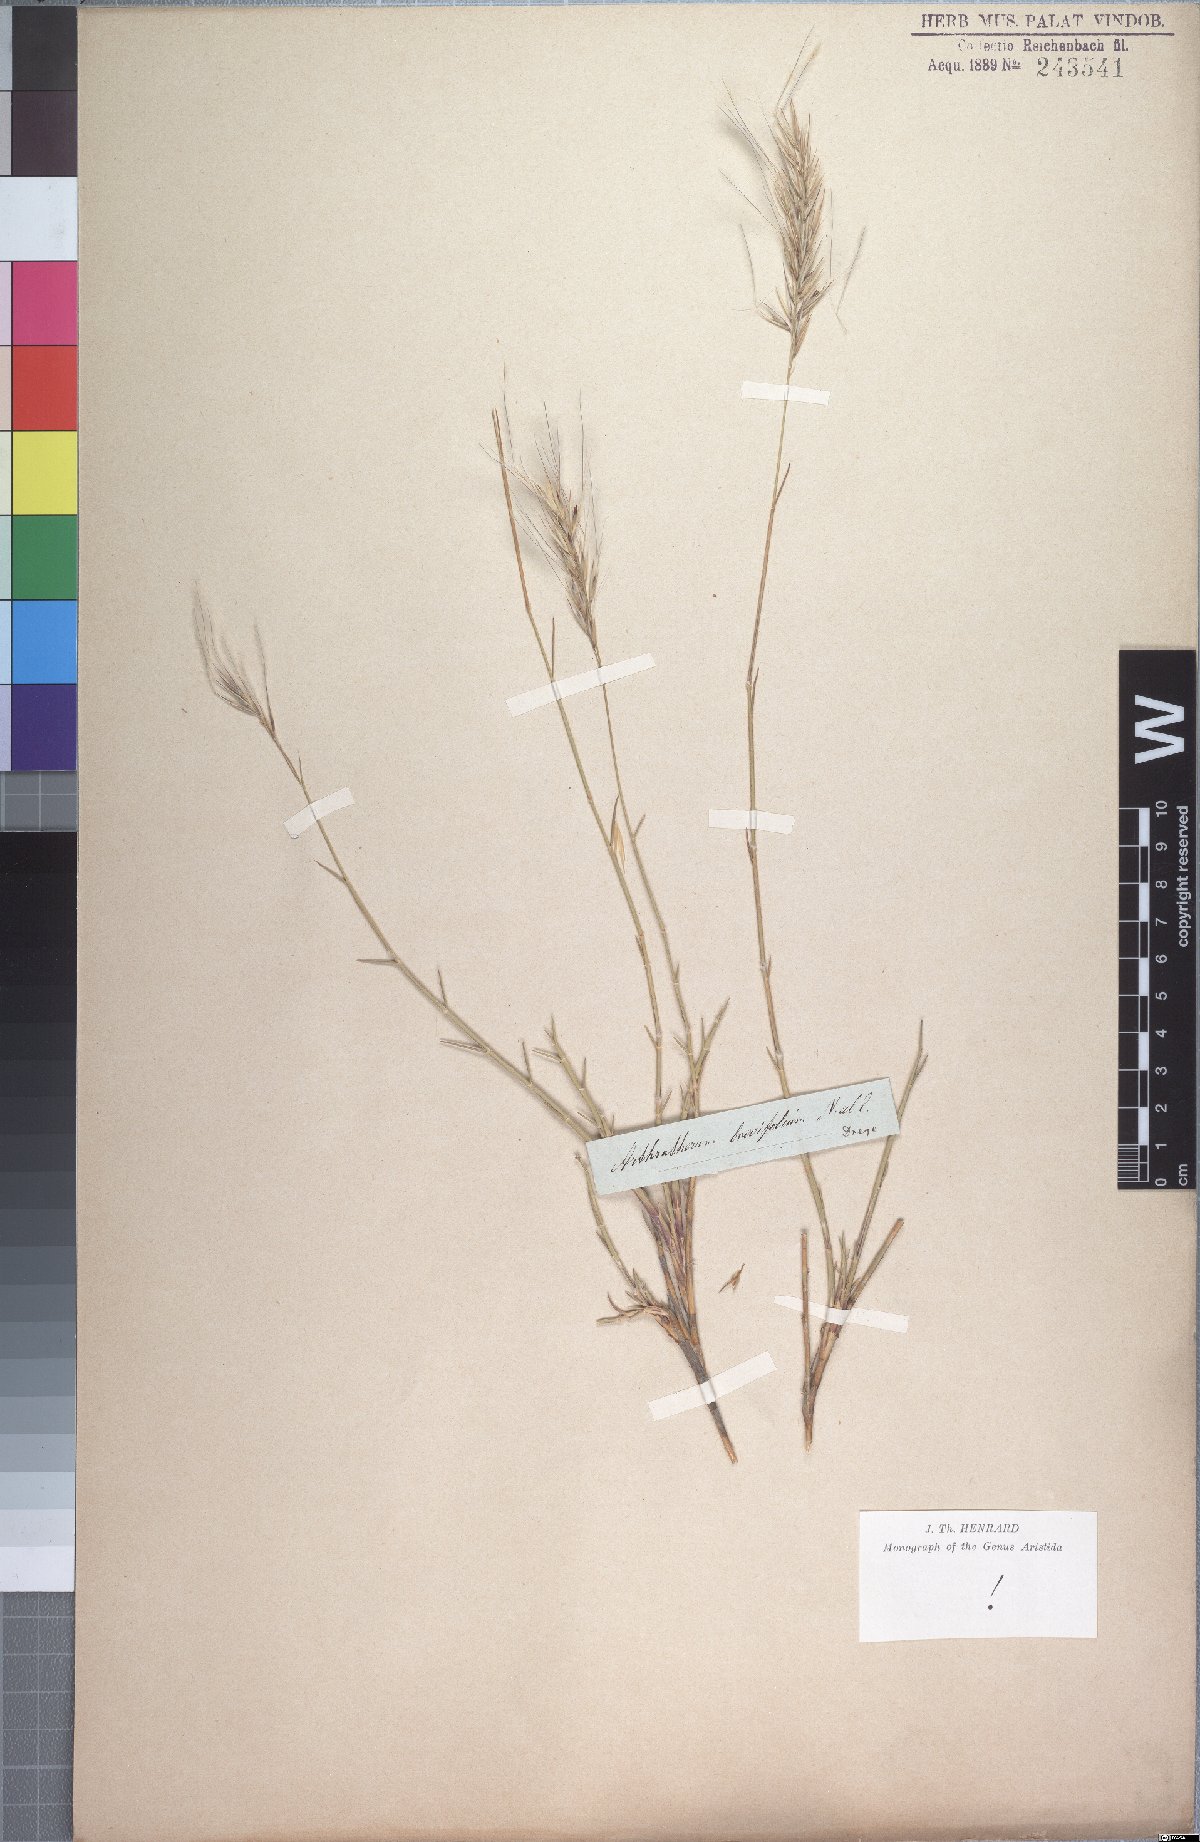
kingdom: Plantae
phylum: Tracheophyta
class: Liliopsida
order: Poales
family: Poaceae
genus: Stipagrostis
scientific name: Stipagrostis brevifolia
